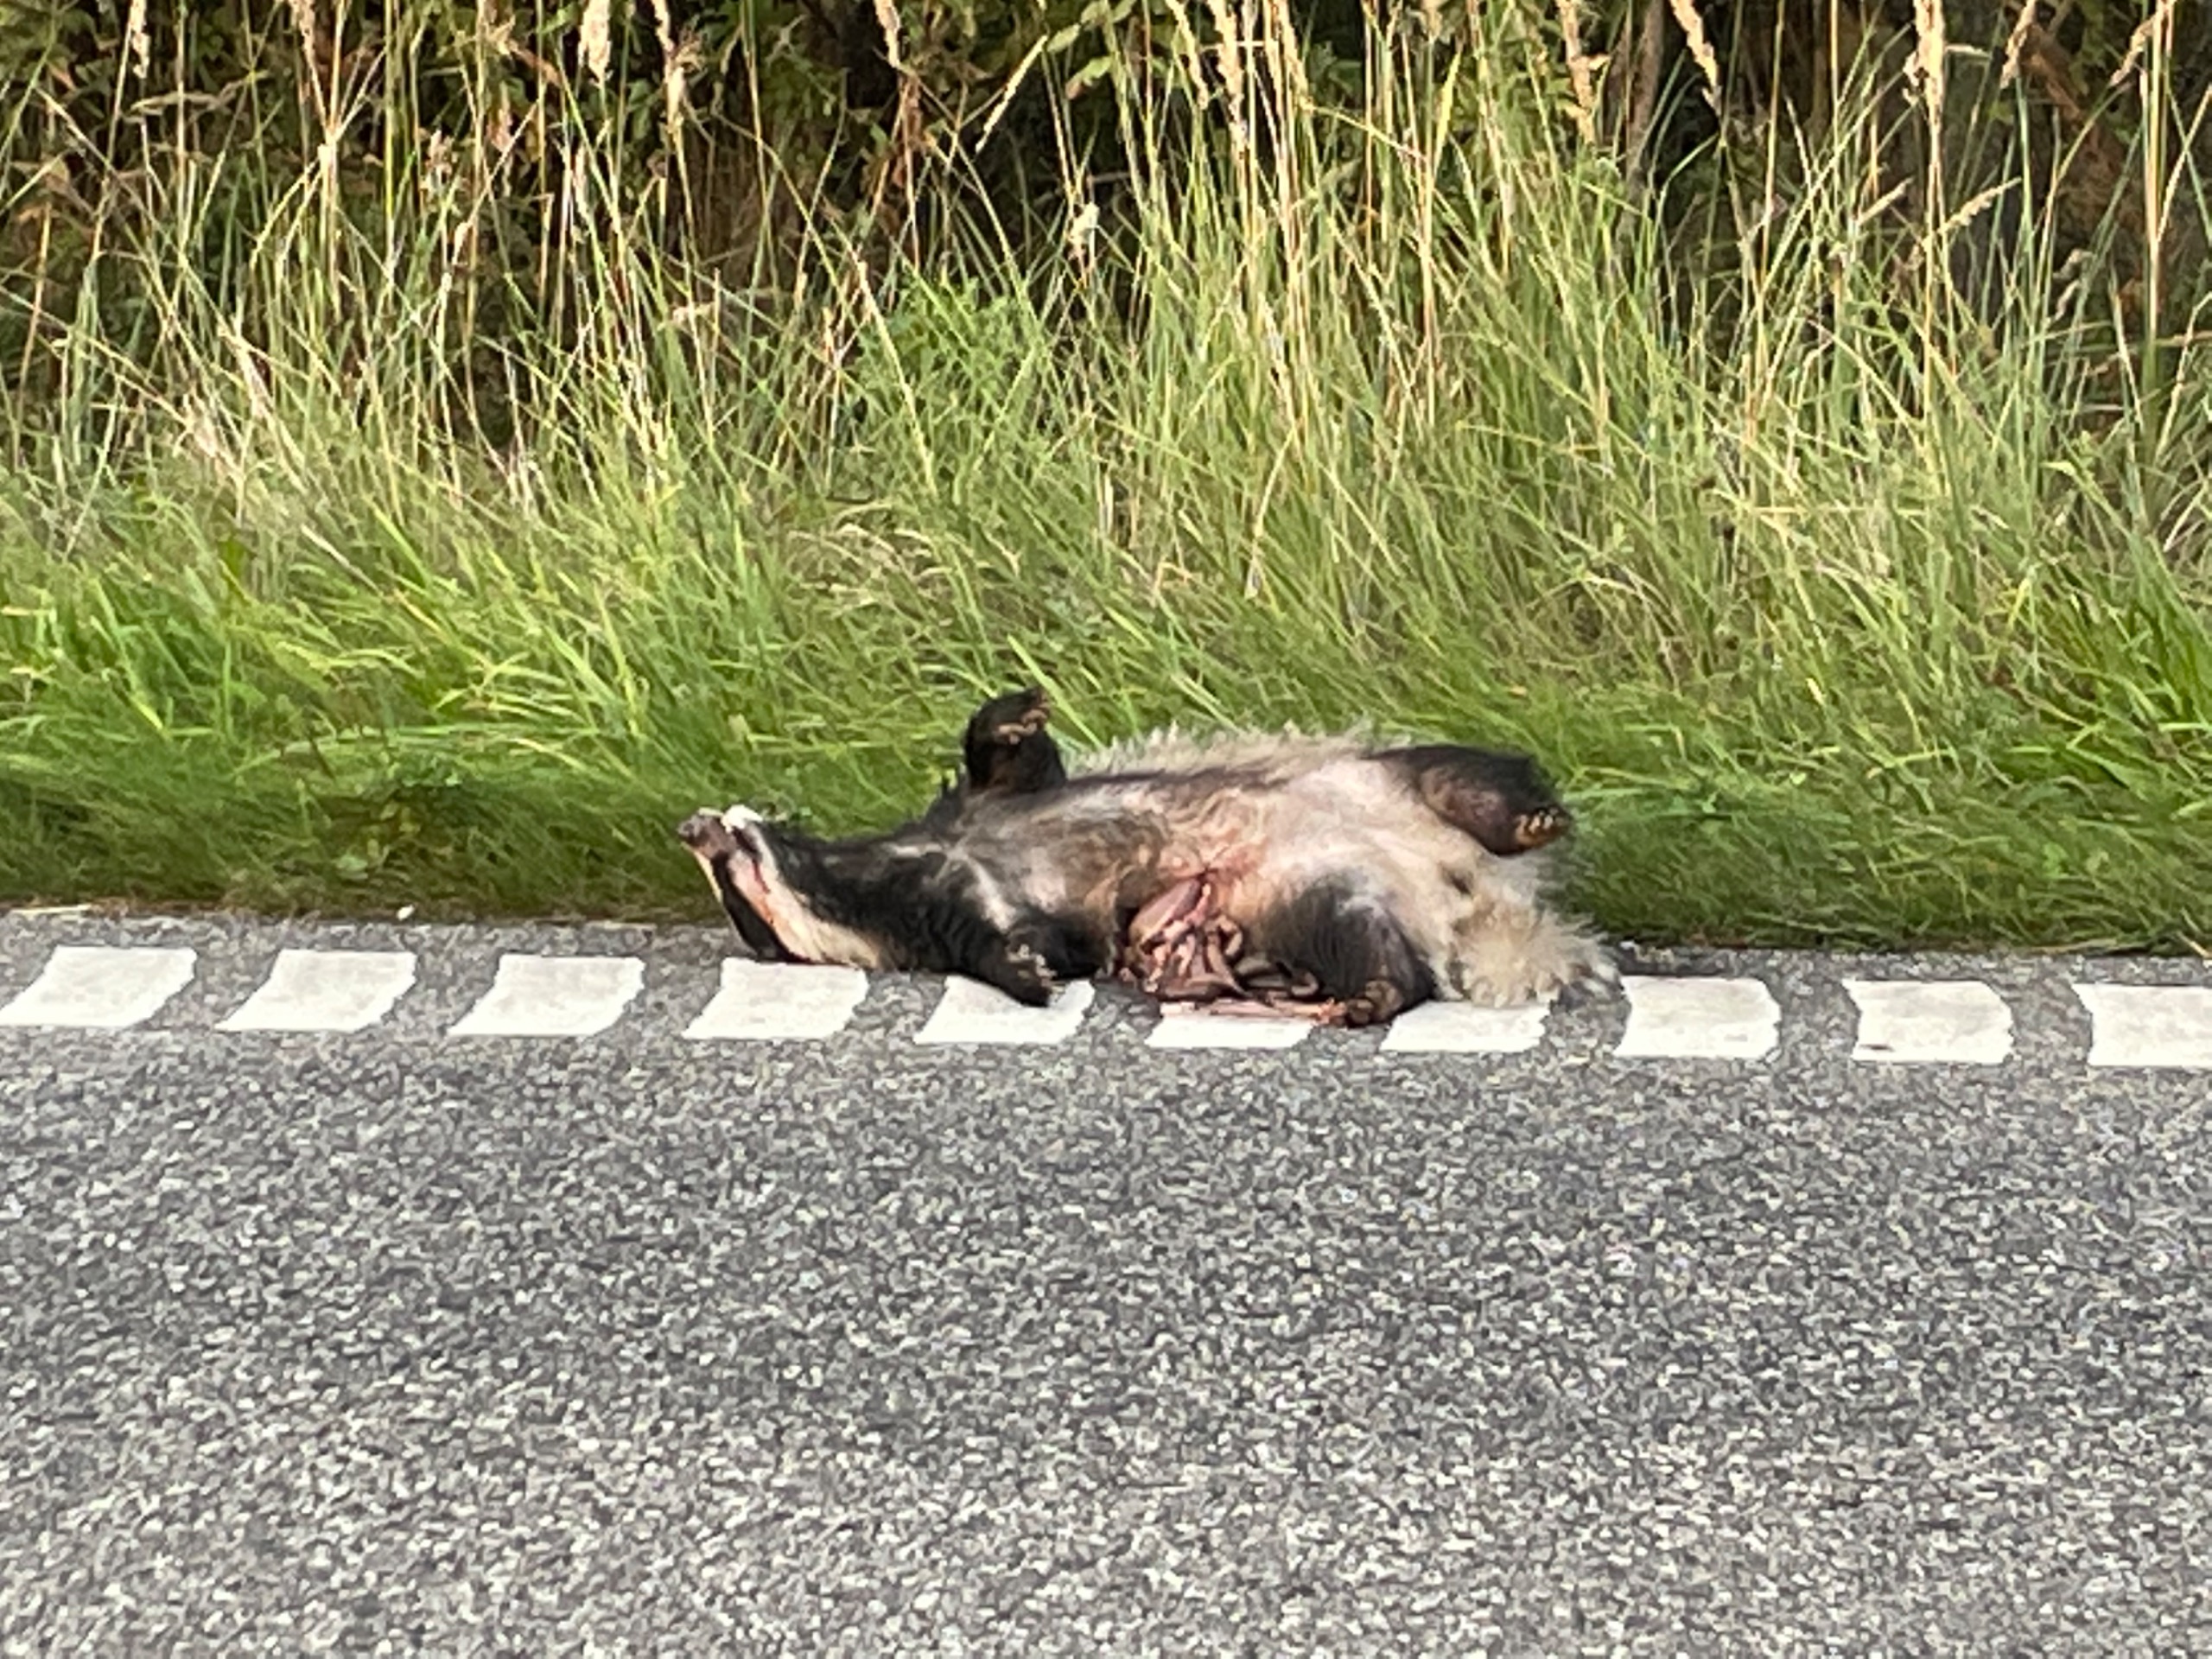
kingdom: Animalia
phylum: Chordata
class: Mammalia
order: Carnivora
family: Mustelidae
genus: Meles
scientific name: Meles meles
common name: Grævling
